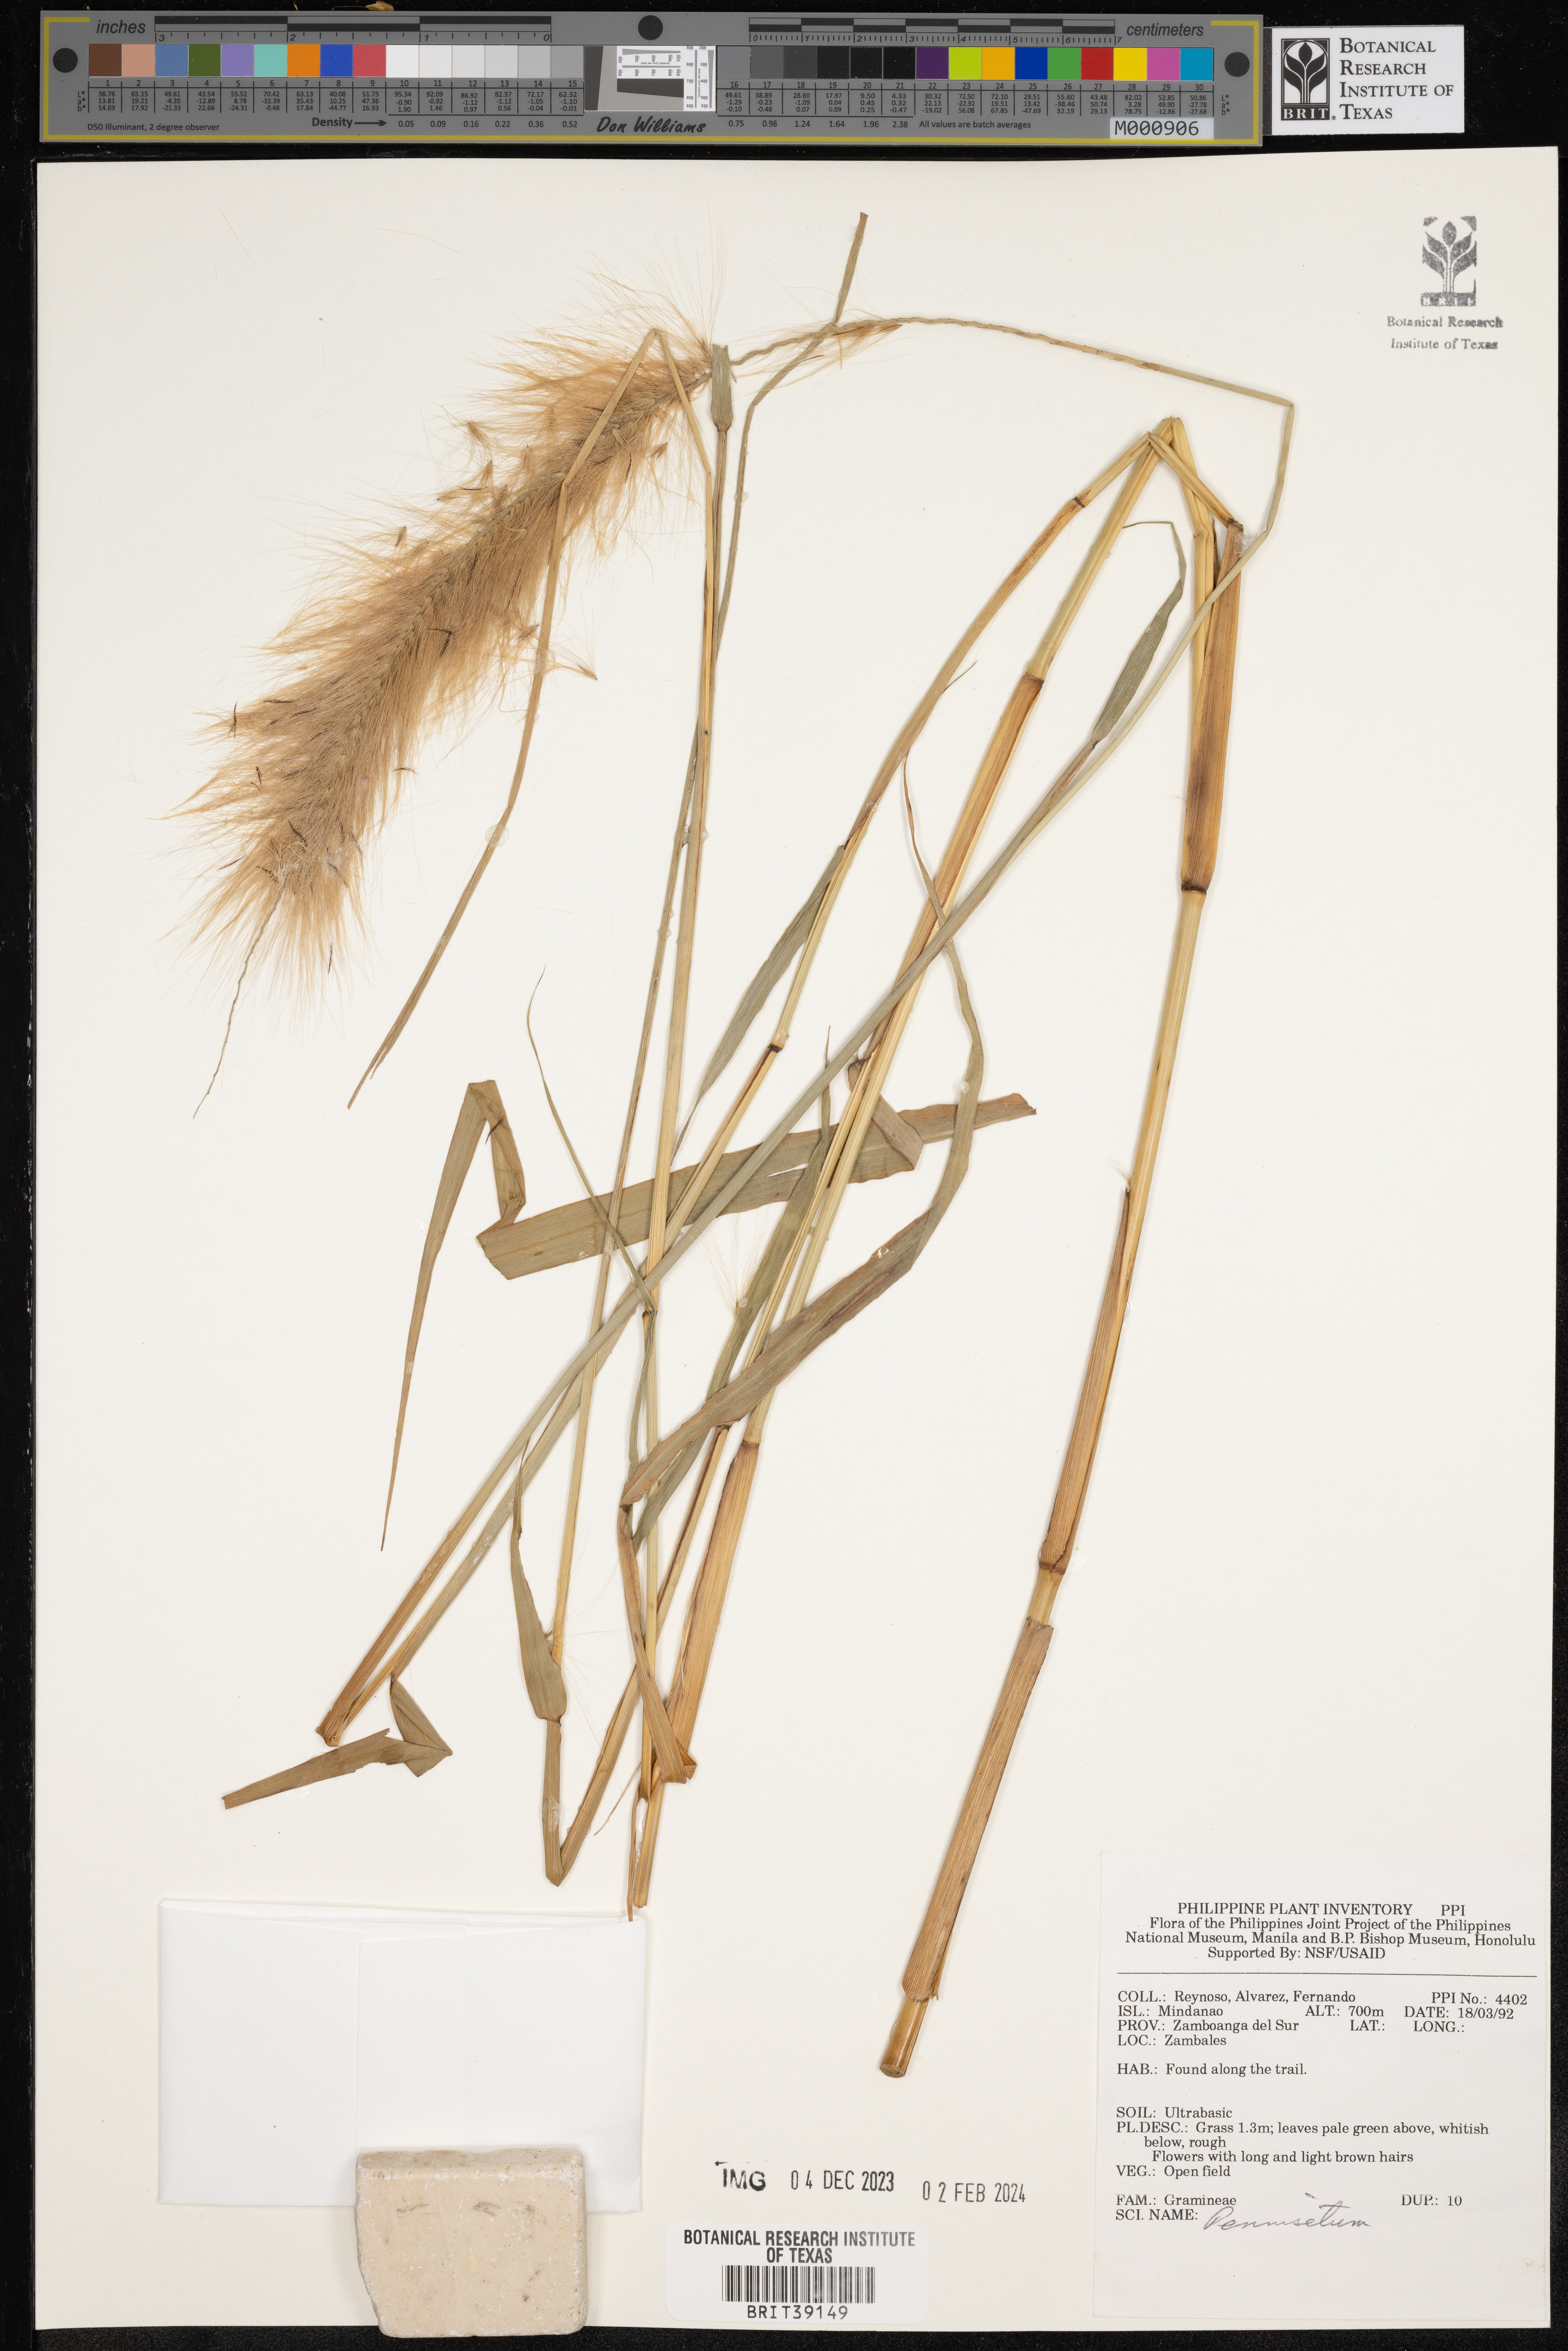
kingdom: Plantae
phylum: Tracheophyta
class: Liliopsida
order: Poales
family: Poaceae
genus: Cenchrus
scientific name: Cenchrus Pennisetum spec
